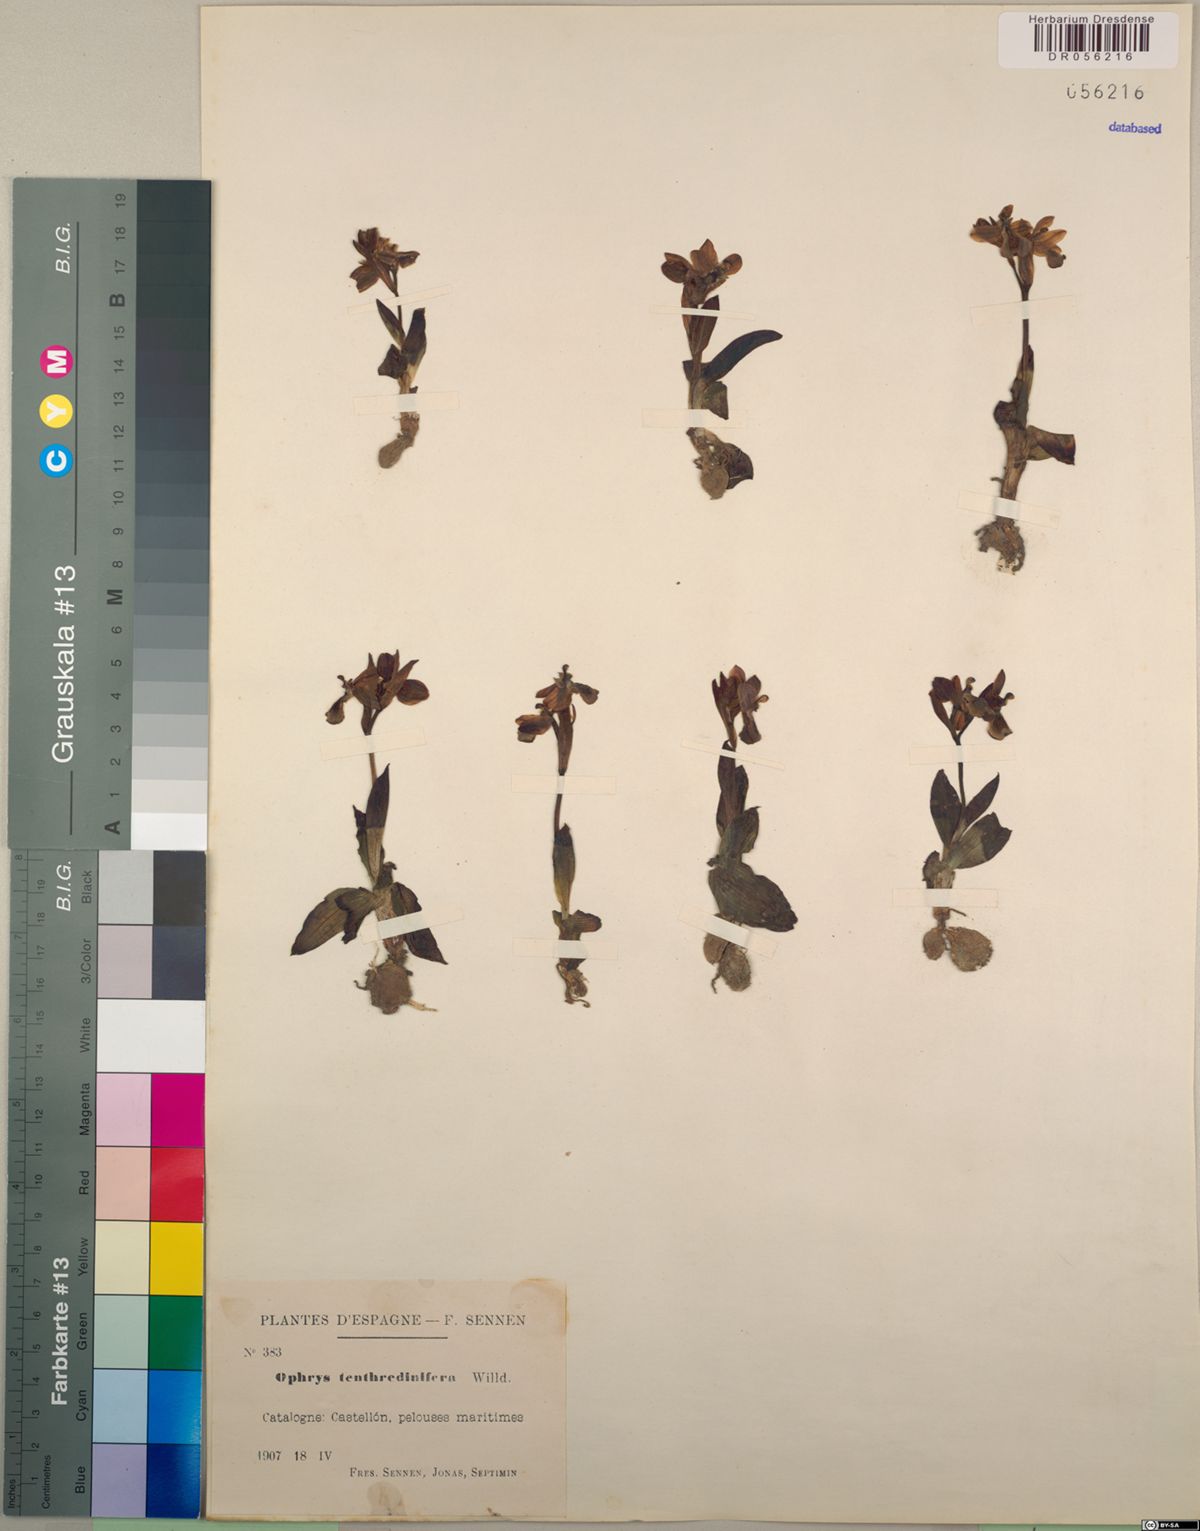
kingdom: Plantae
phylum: Tracheophyta
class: Liliopsida
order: Asparagales
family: Orchidaceae
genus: Ophrys
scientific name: Ophrys tenthredinifera
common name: Sawfly orchid
